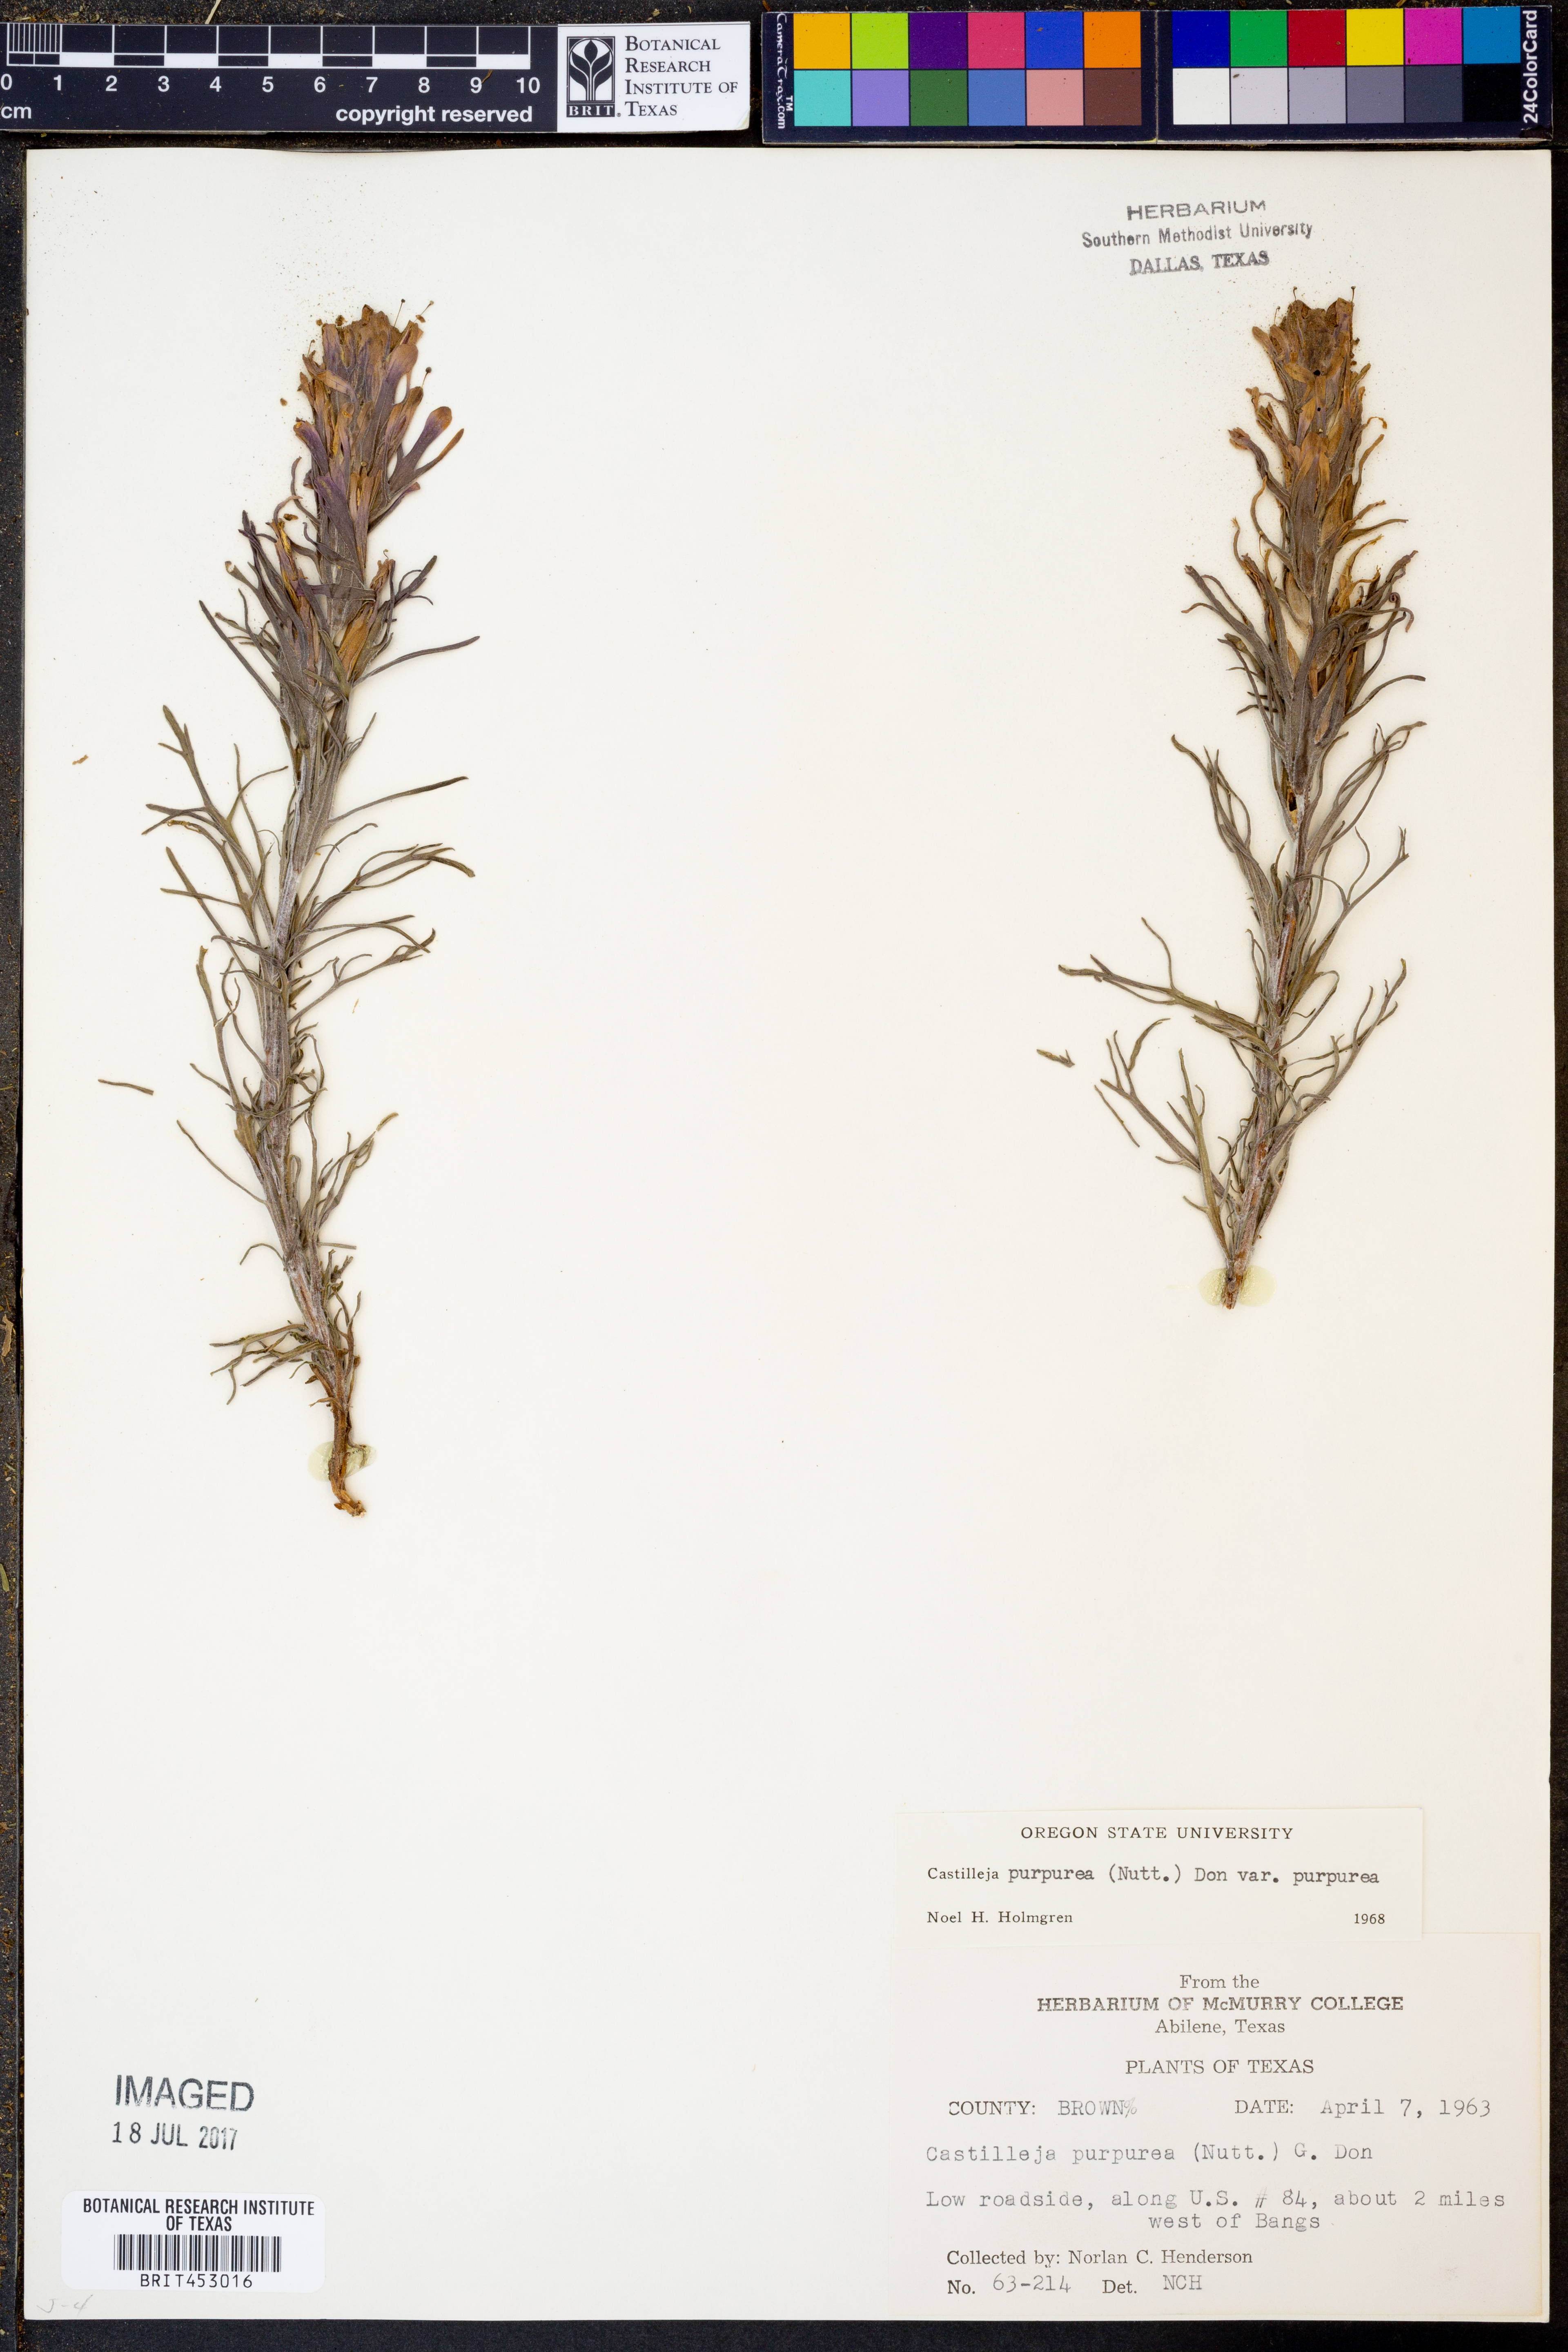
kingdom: Plantae
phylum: Tracheophyta
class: Magnoliopsida
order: Lamiales
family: Orobanchaceae
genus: Castilleja
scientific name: Castilleja purpurea
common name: Plains paintbrush
